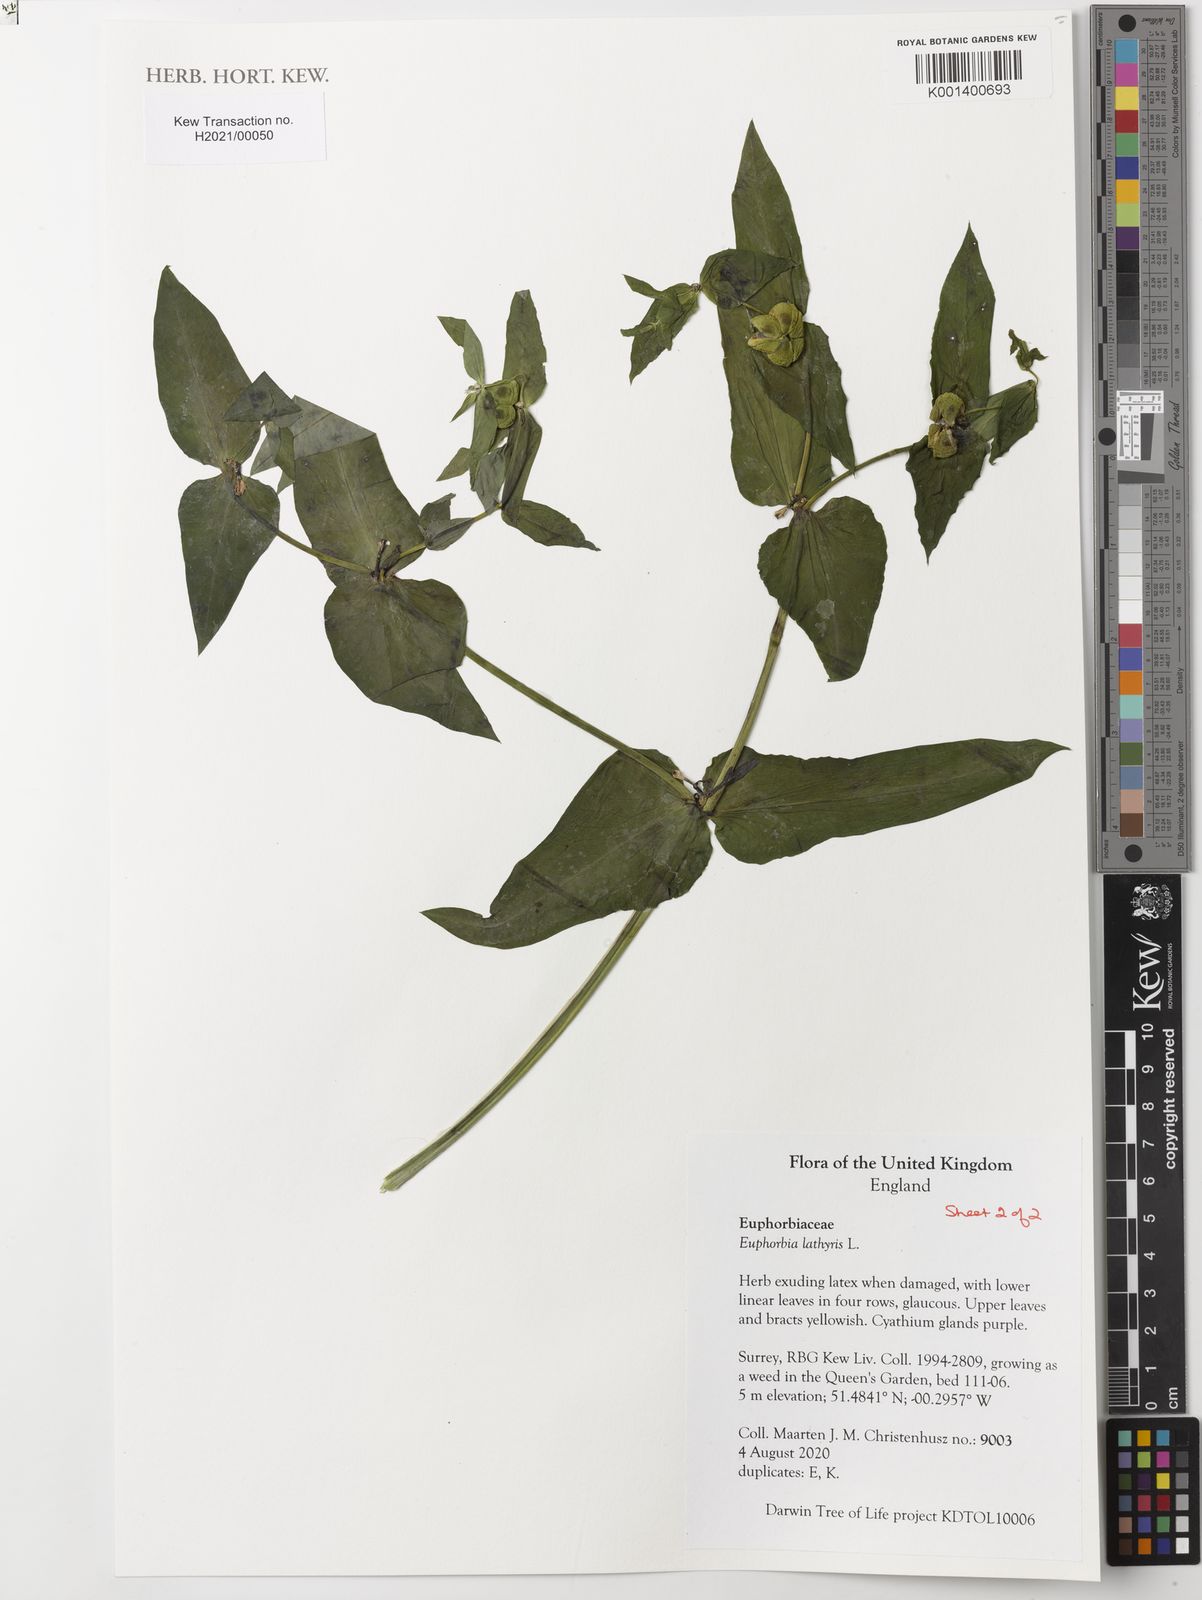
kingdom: Plantae
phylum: Tracheophyta
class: Magnoliopsida
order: Malpighiales
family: Euphorbiaceae
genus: Euphorbia
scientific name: Euphorbia lathyris
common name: Caper spurge
